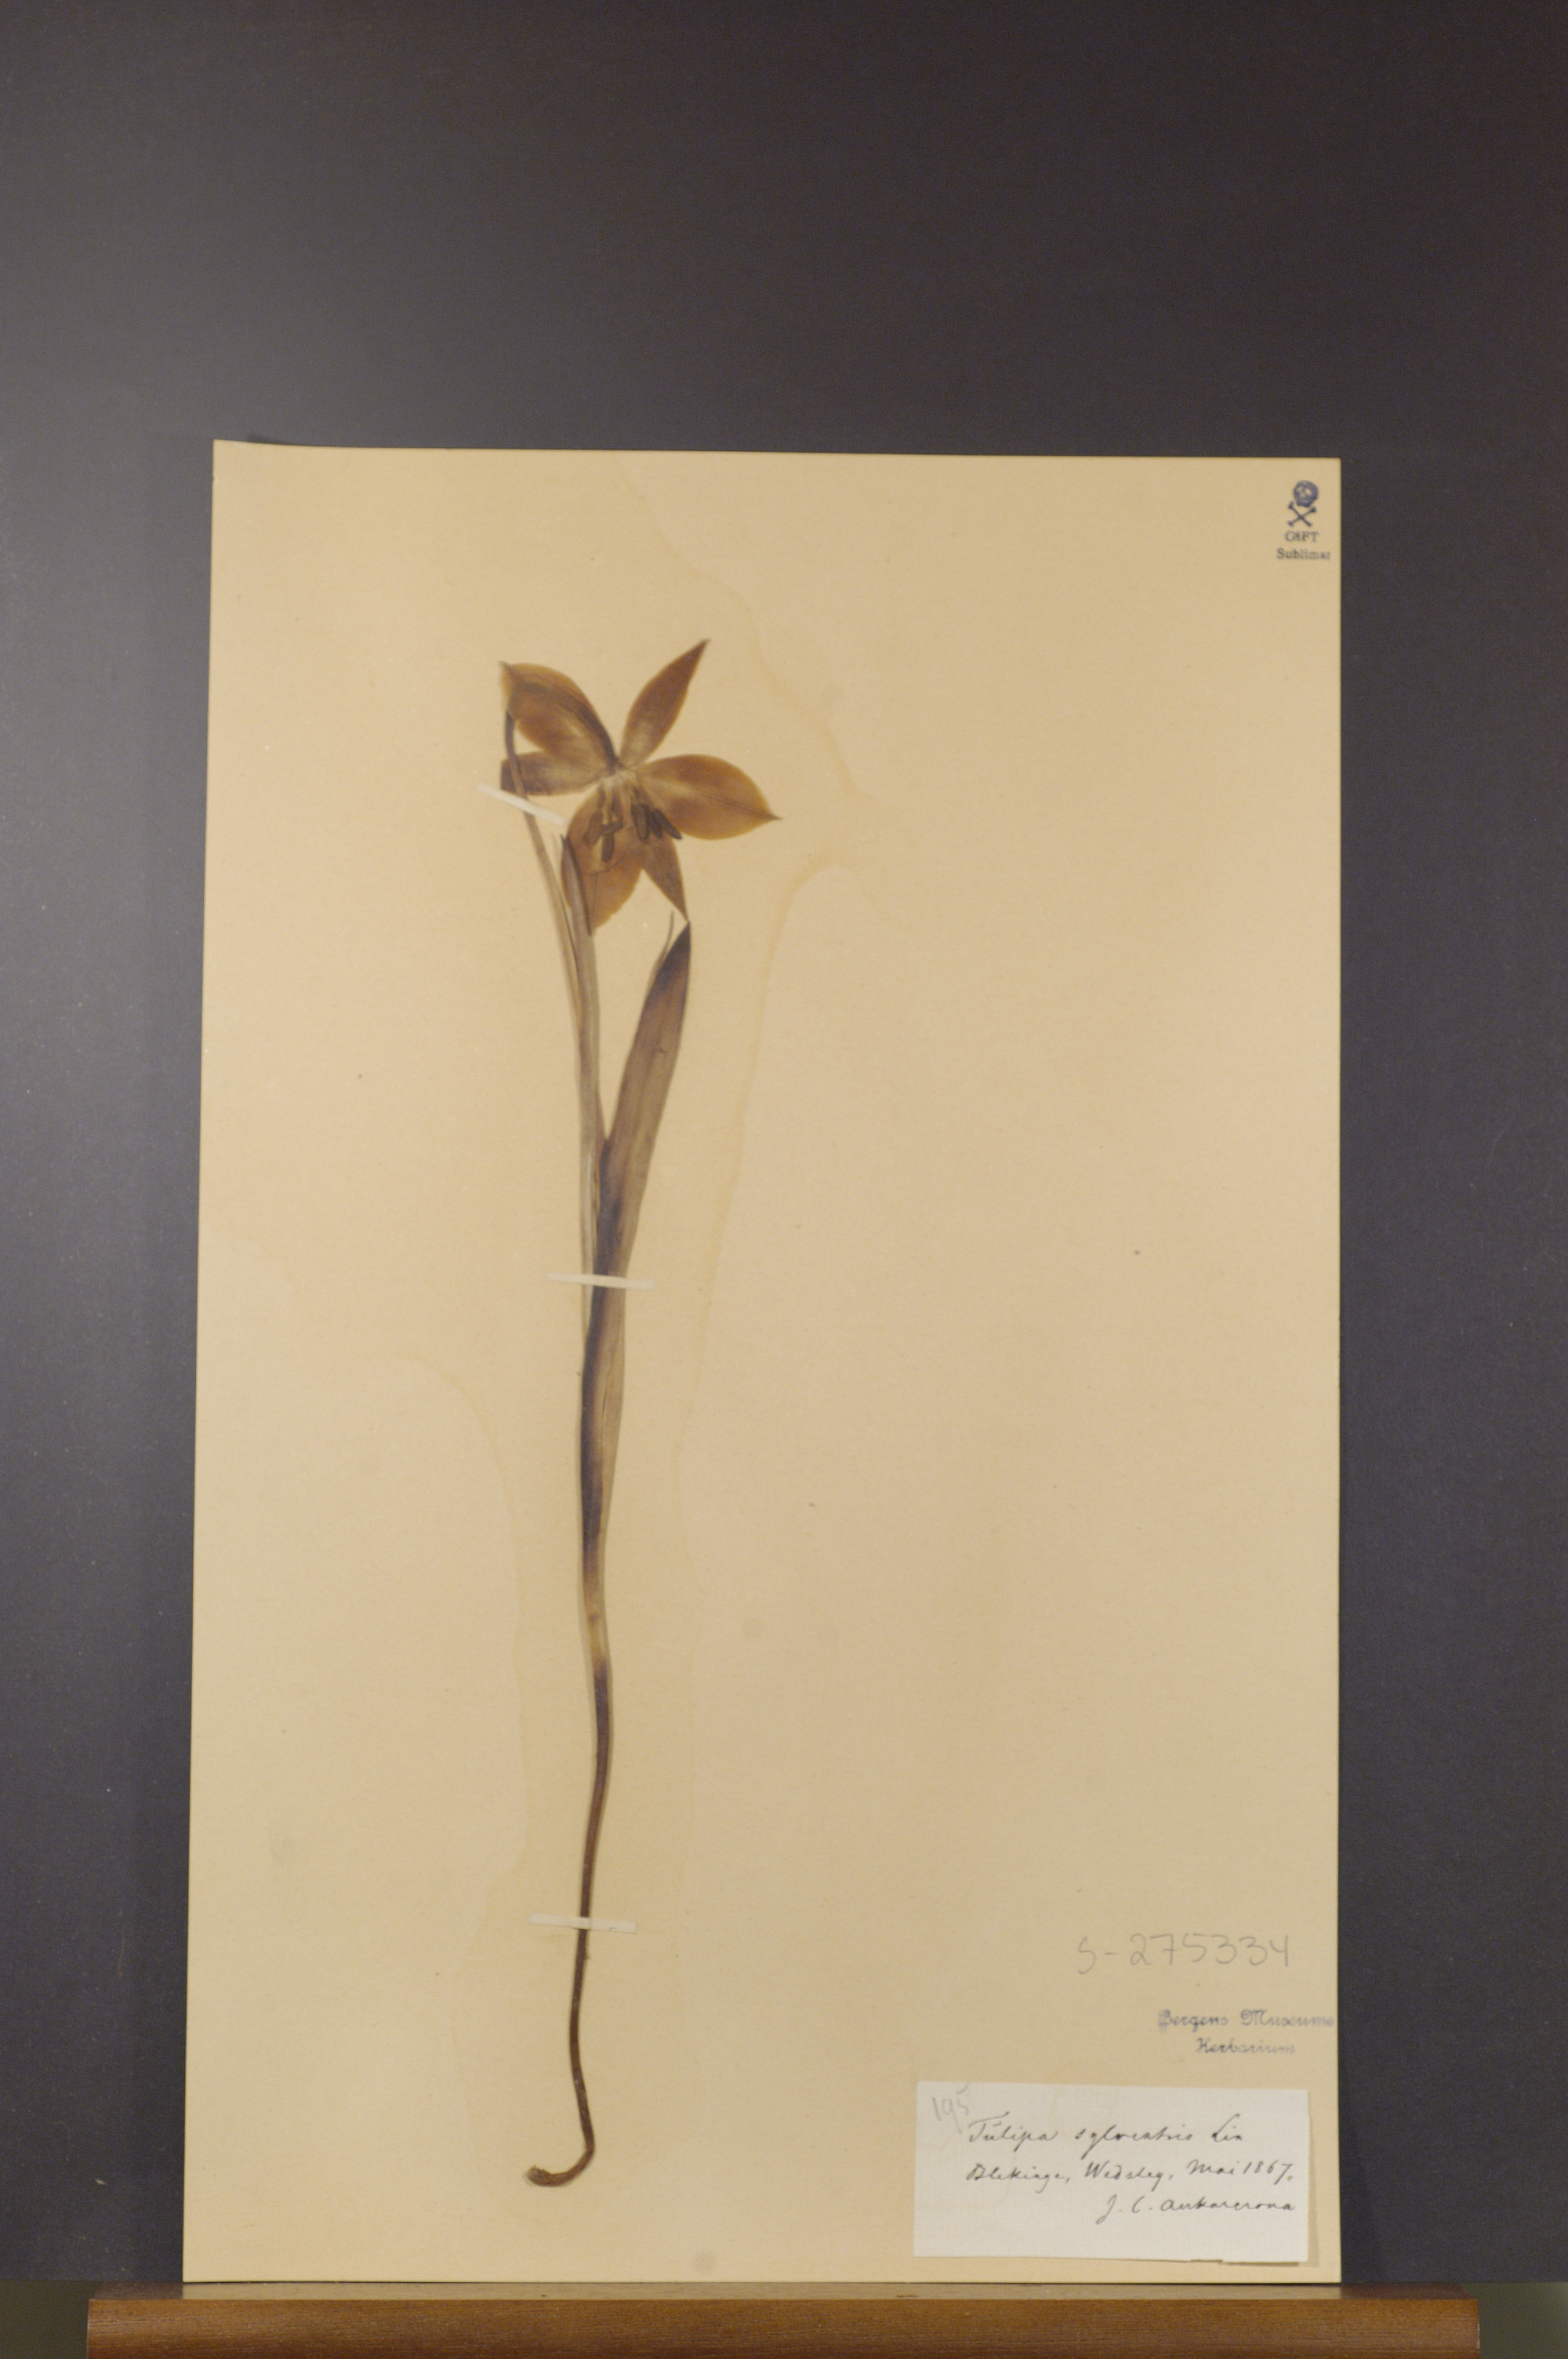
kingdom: Plantae
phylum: Tracheophyta
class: Liliopsida
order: Liliales
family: Liliaceae
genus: Tulipa
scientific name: Tulipa sylvestris
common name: Wild tulip
